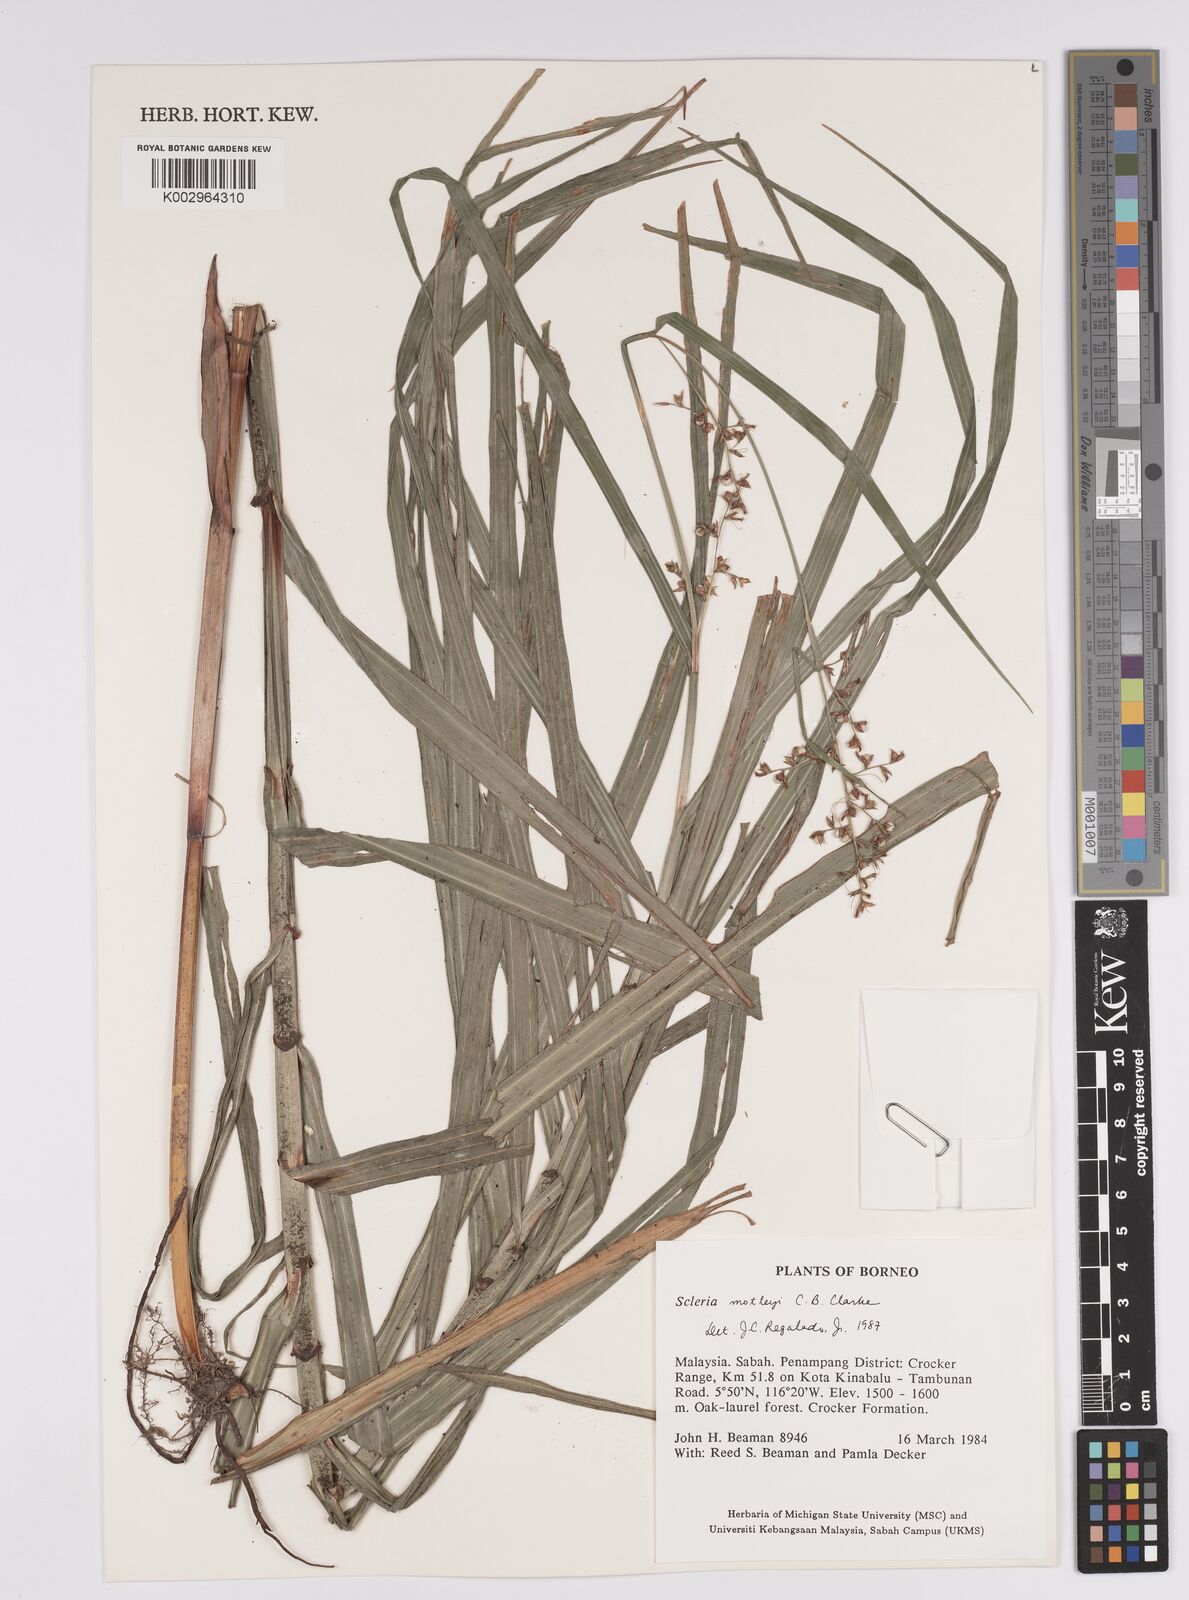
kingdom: Plantae
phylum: Tracheophyta
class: Liliopsida
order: Poales
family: Cyperaceae
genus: Scleria
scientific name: Scleria motleyi
